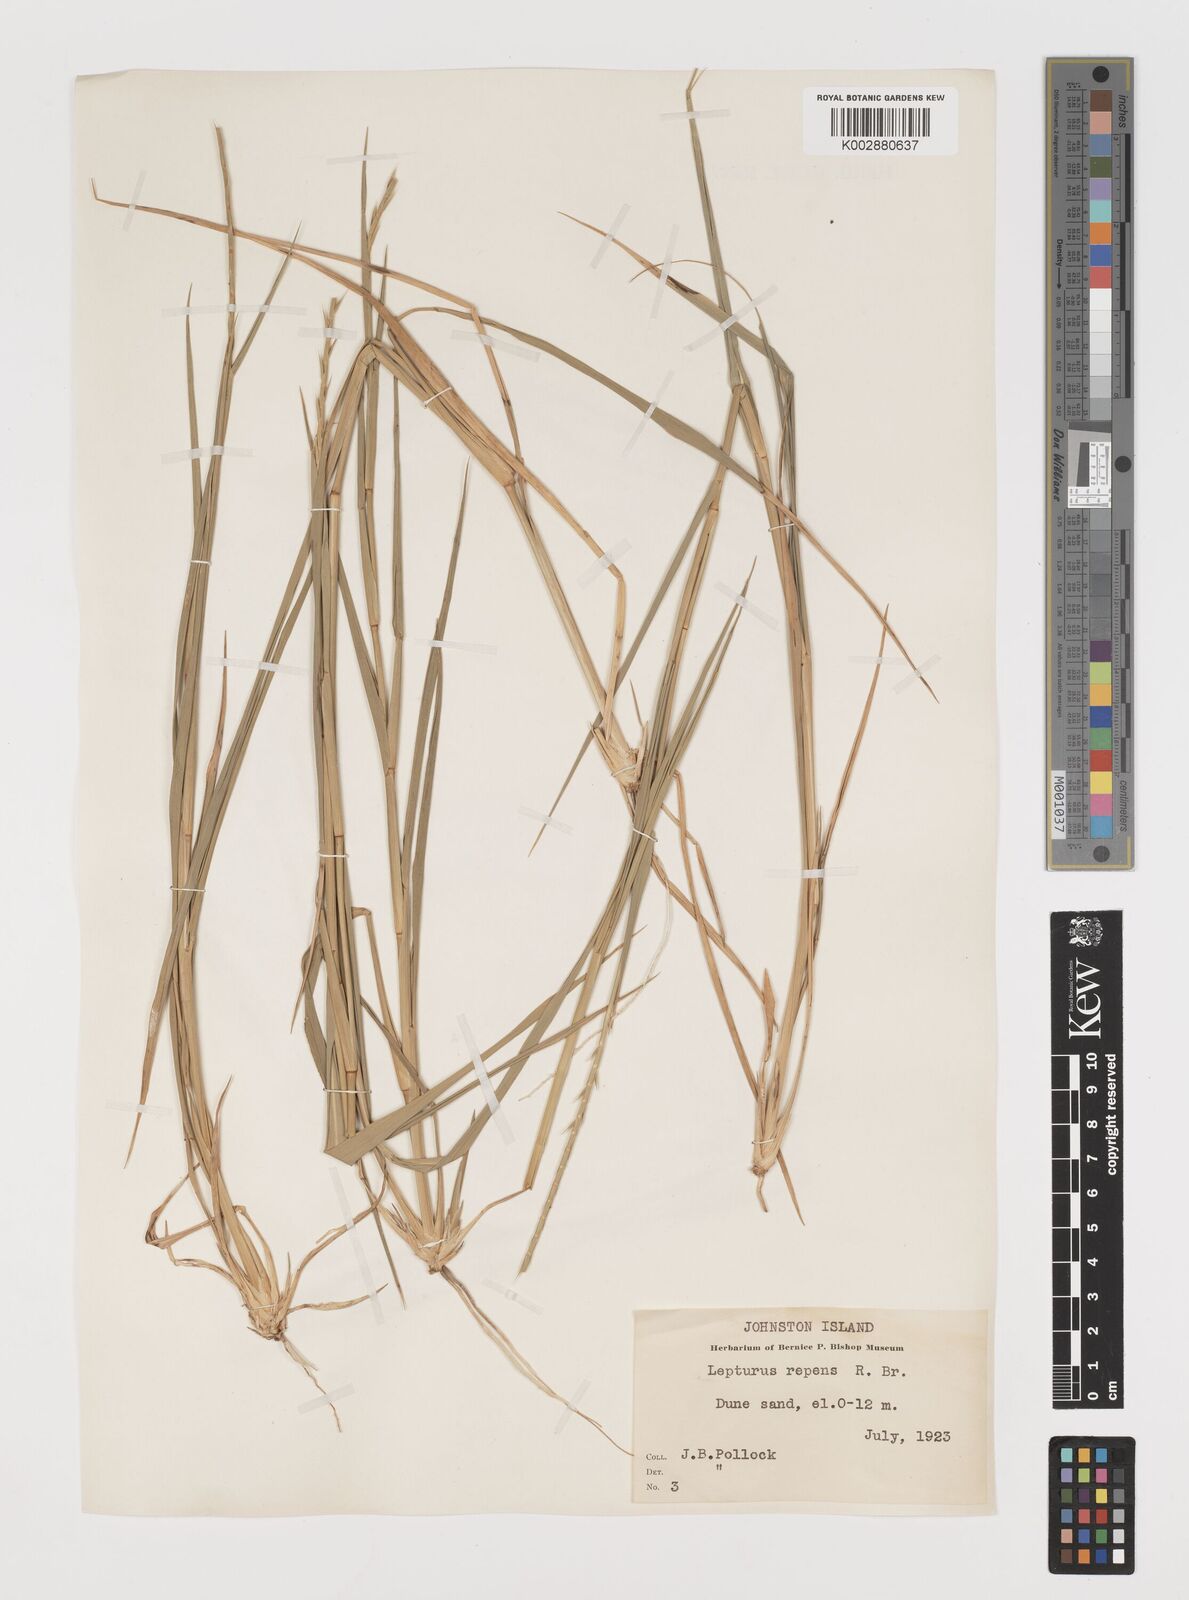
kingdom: Plantae
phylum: Tracheophyta
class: Liliopsida
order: Poales
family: Poaceae
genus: Lepturus
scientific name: Lepturus repens
